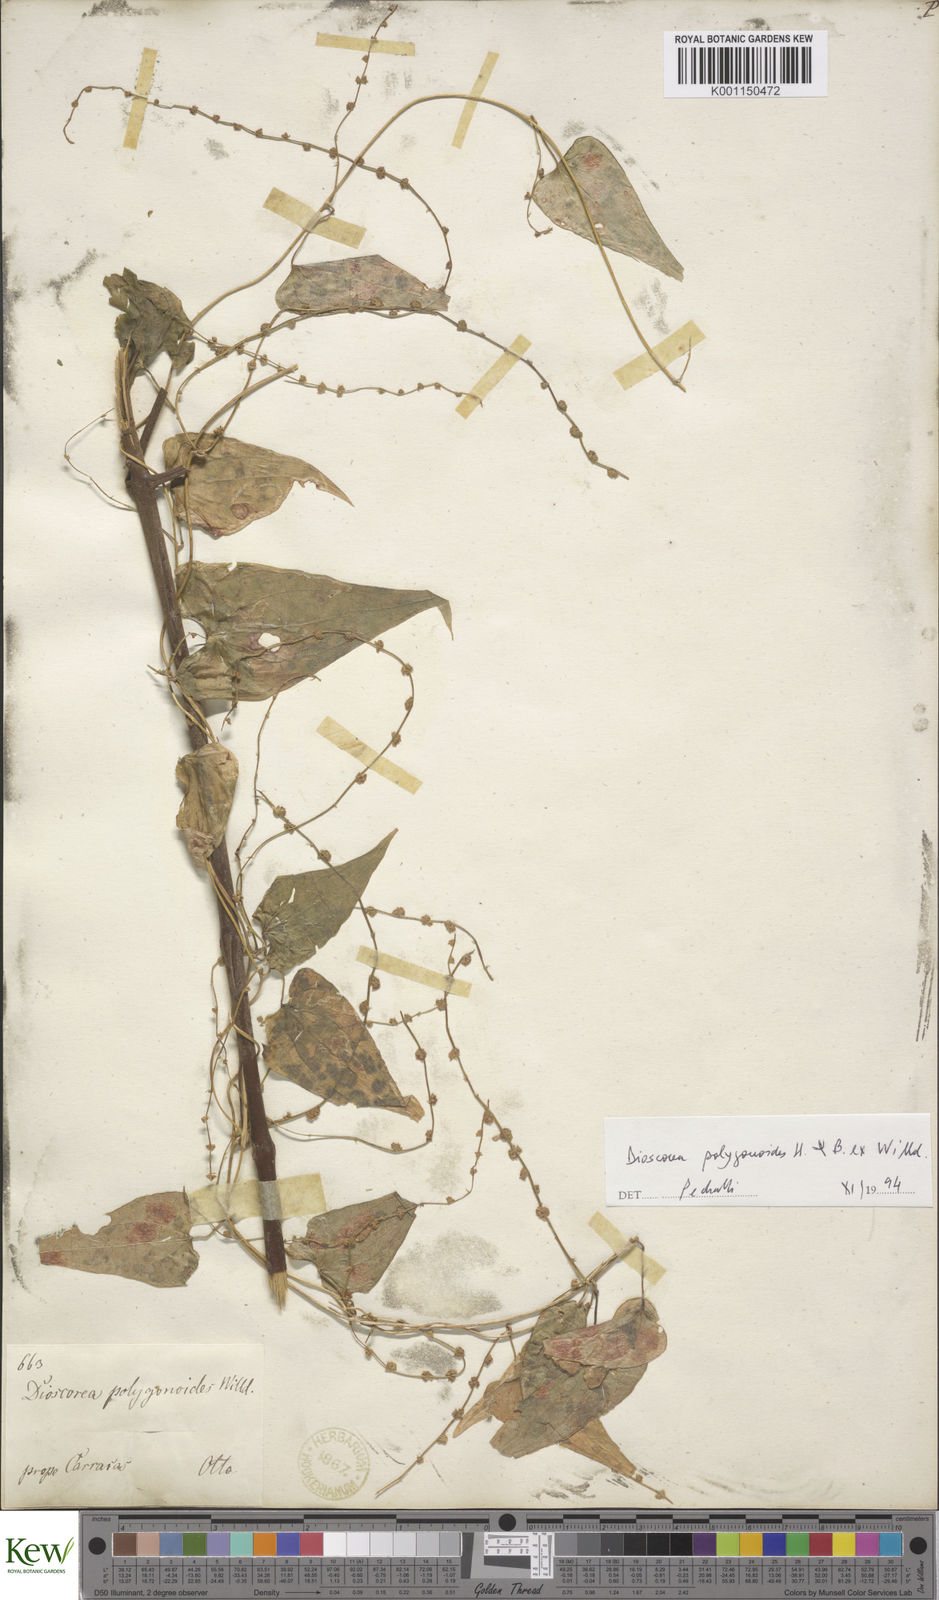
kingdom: Plantae
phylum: Tracheophyta
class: Liliopsida
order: Dioscoreales
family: Dioscoreaceae
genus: Dioscorea
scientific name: Dioscorea polygonoides
